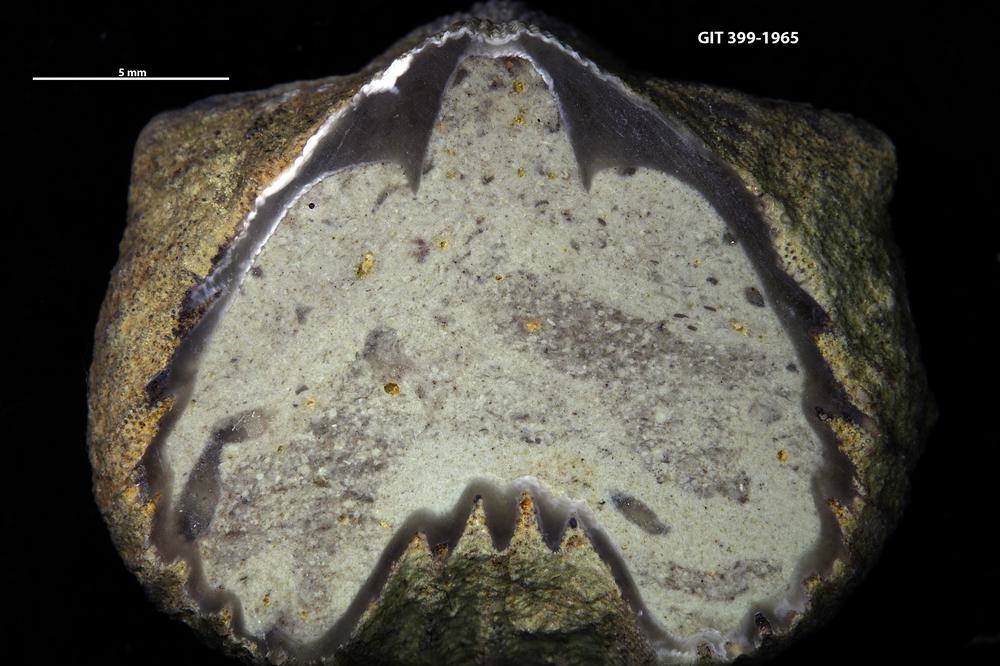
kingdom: Animalia
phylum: Brachiopoda
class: Rhynchonellata
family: Plectorthidae
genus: Platystrophia
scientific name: Platystrophia
